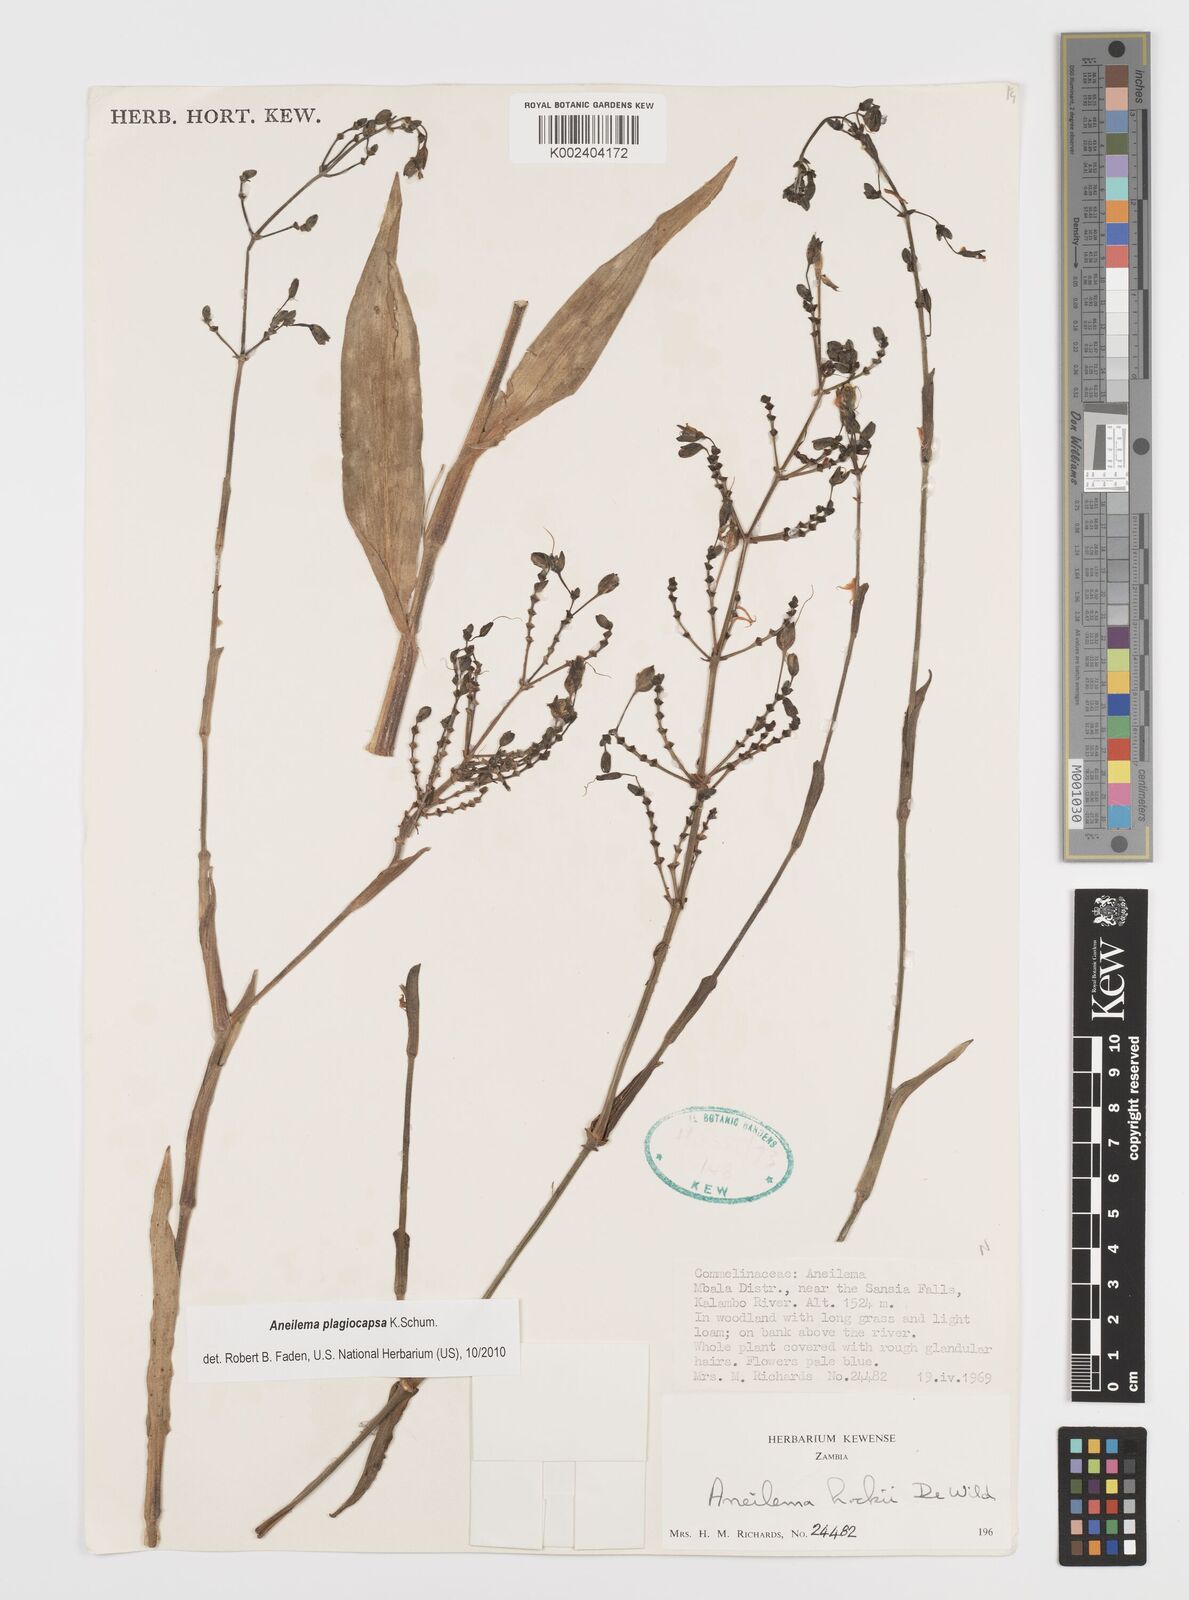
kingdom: Plantae
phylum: Tracheophyta
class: Liliopsida
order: Commelinales
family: Commelinaceae
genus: Aneilema
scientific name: Aneilema plagiocapsa
